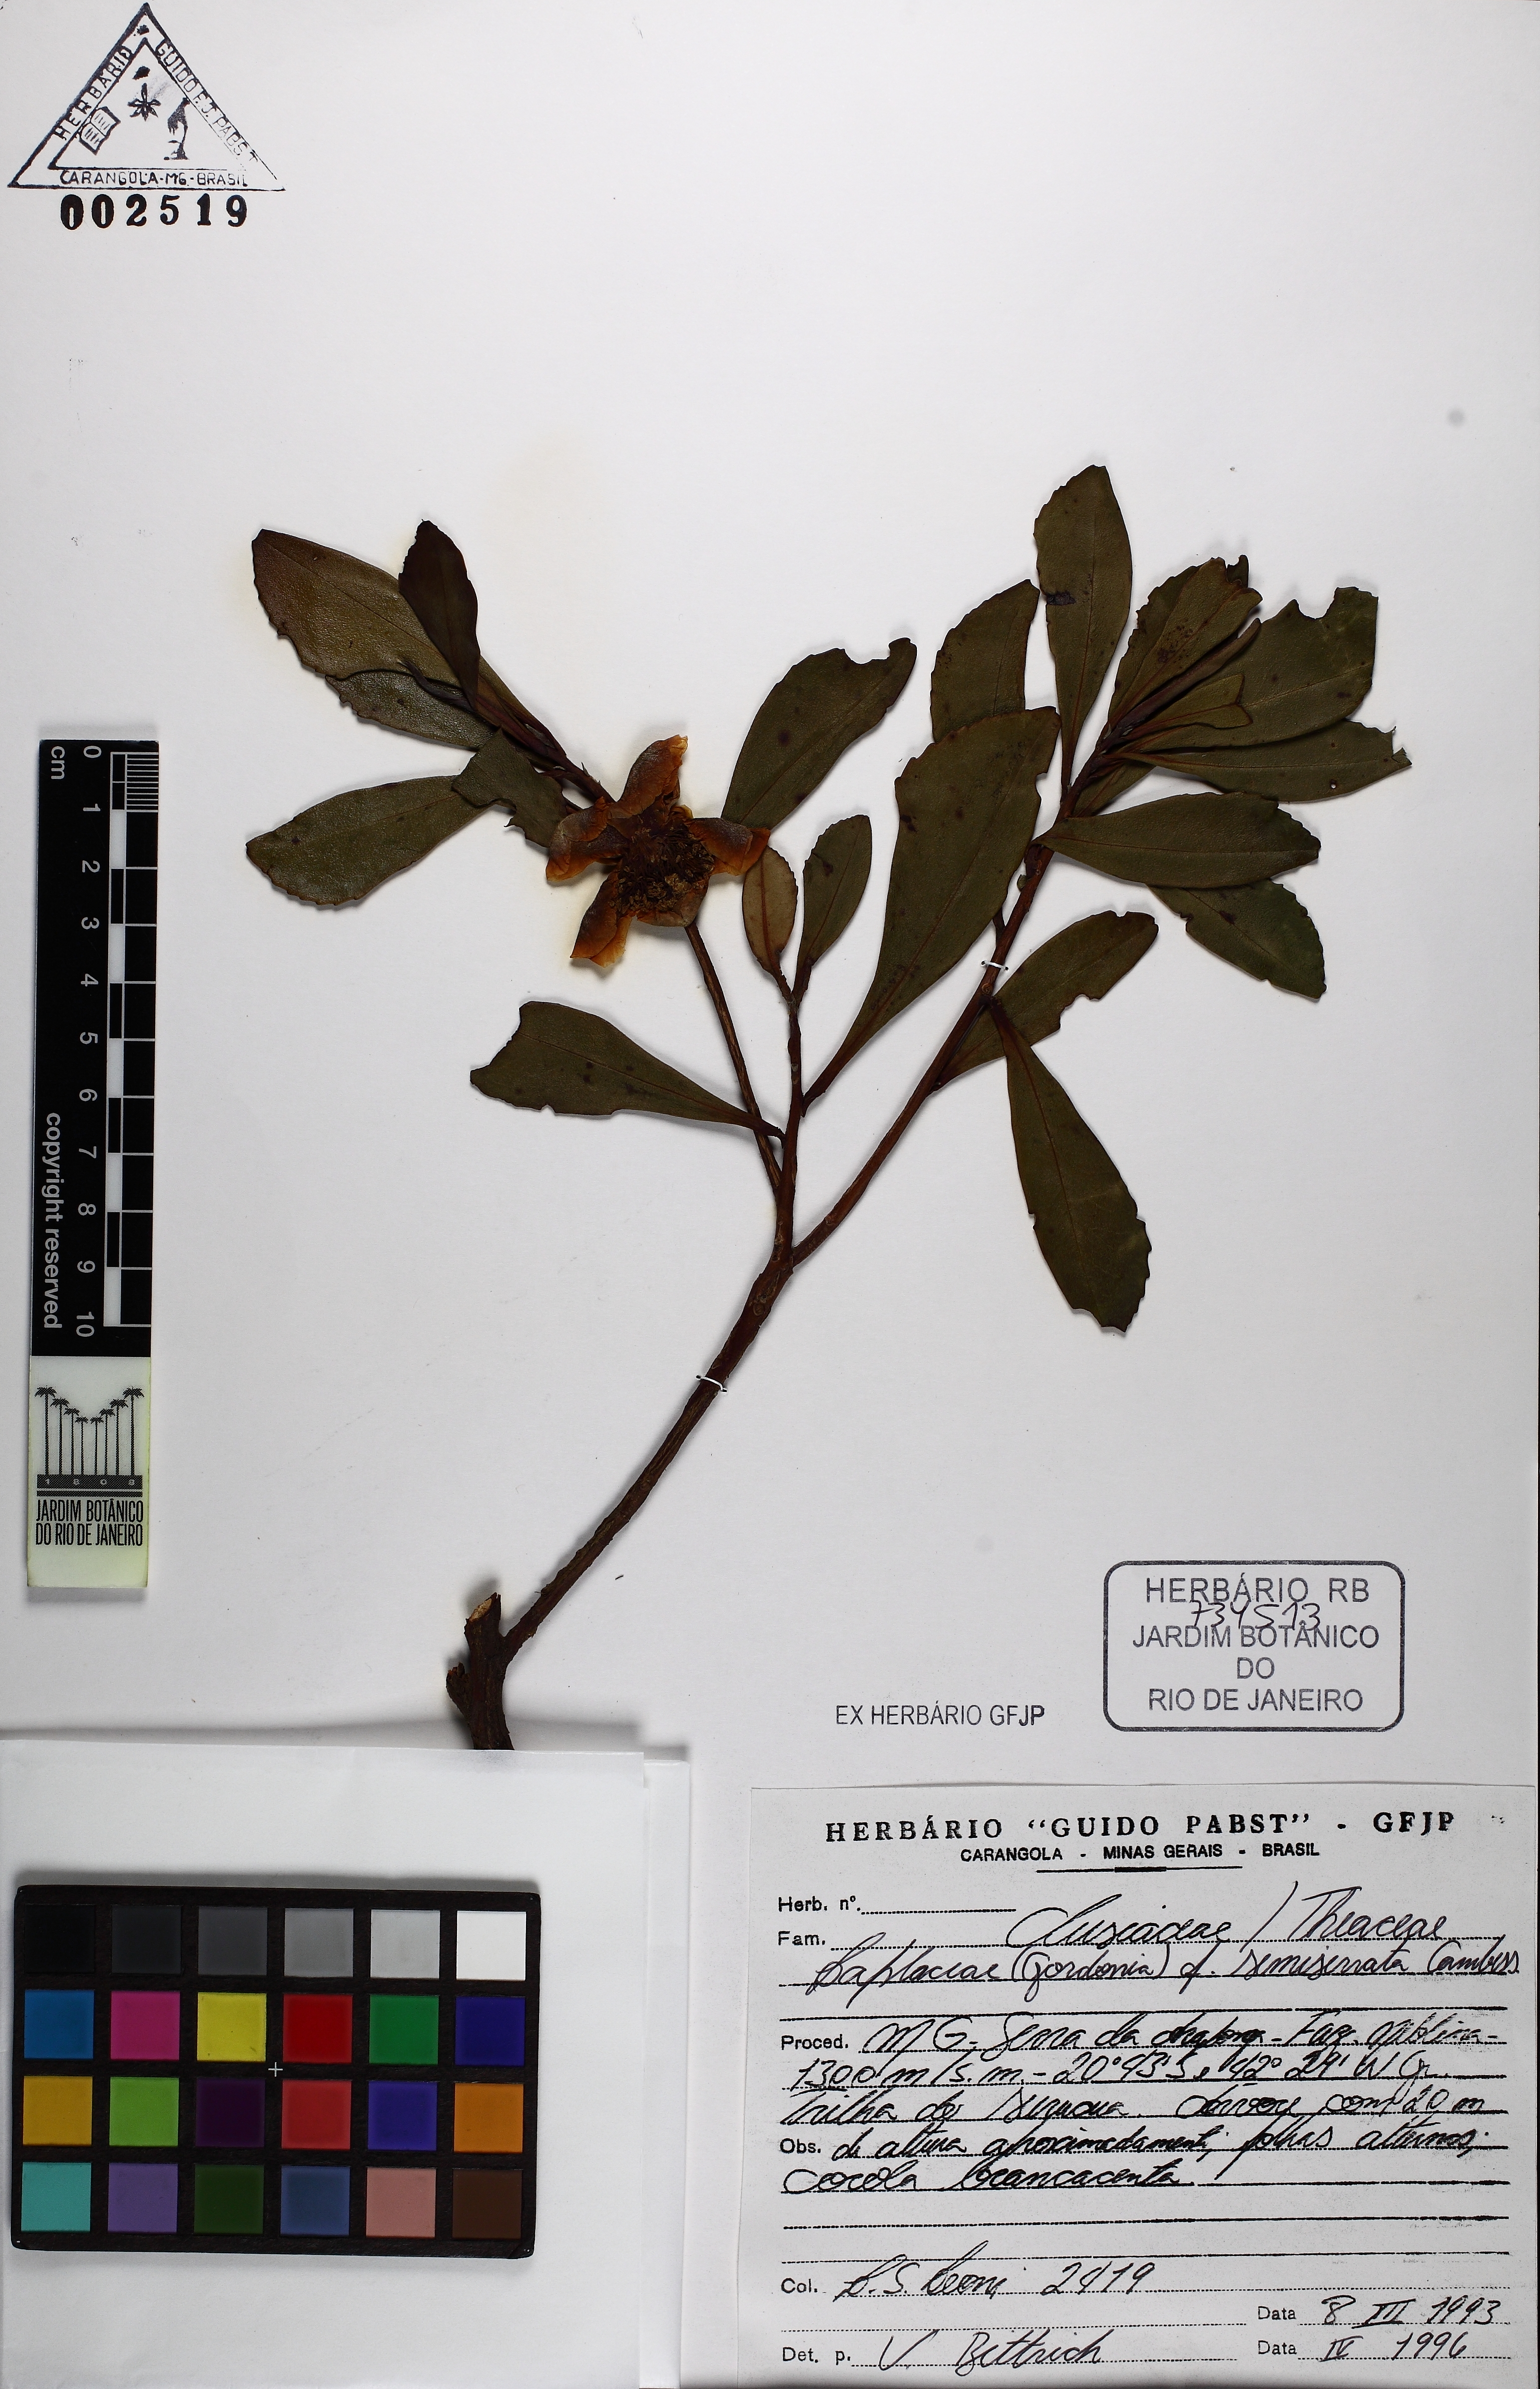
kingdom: Plantae
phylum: Tracheophyta
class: Magnoliopsida
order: Ericales
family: Theaceae
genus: Gordonia
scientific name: Gordonia fruticosa
